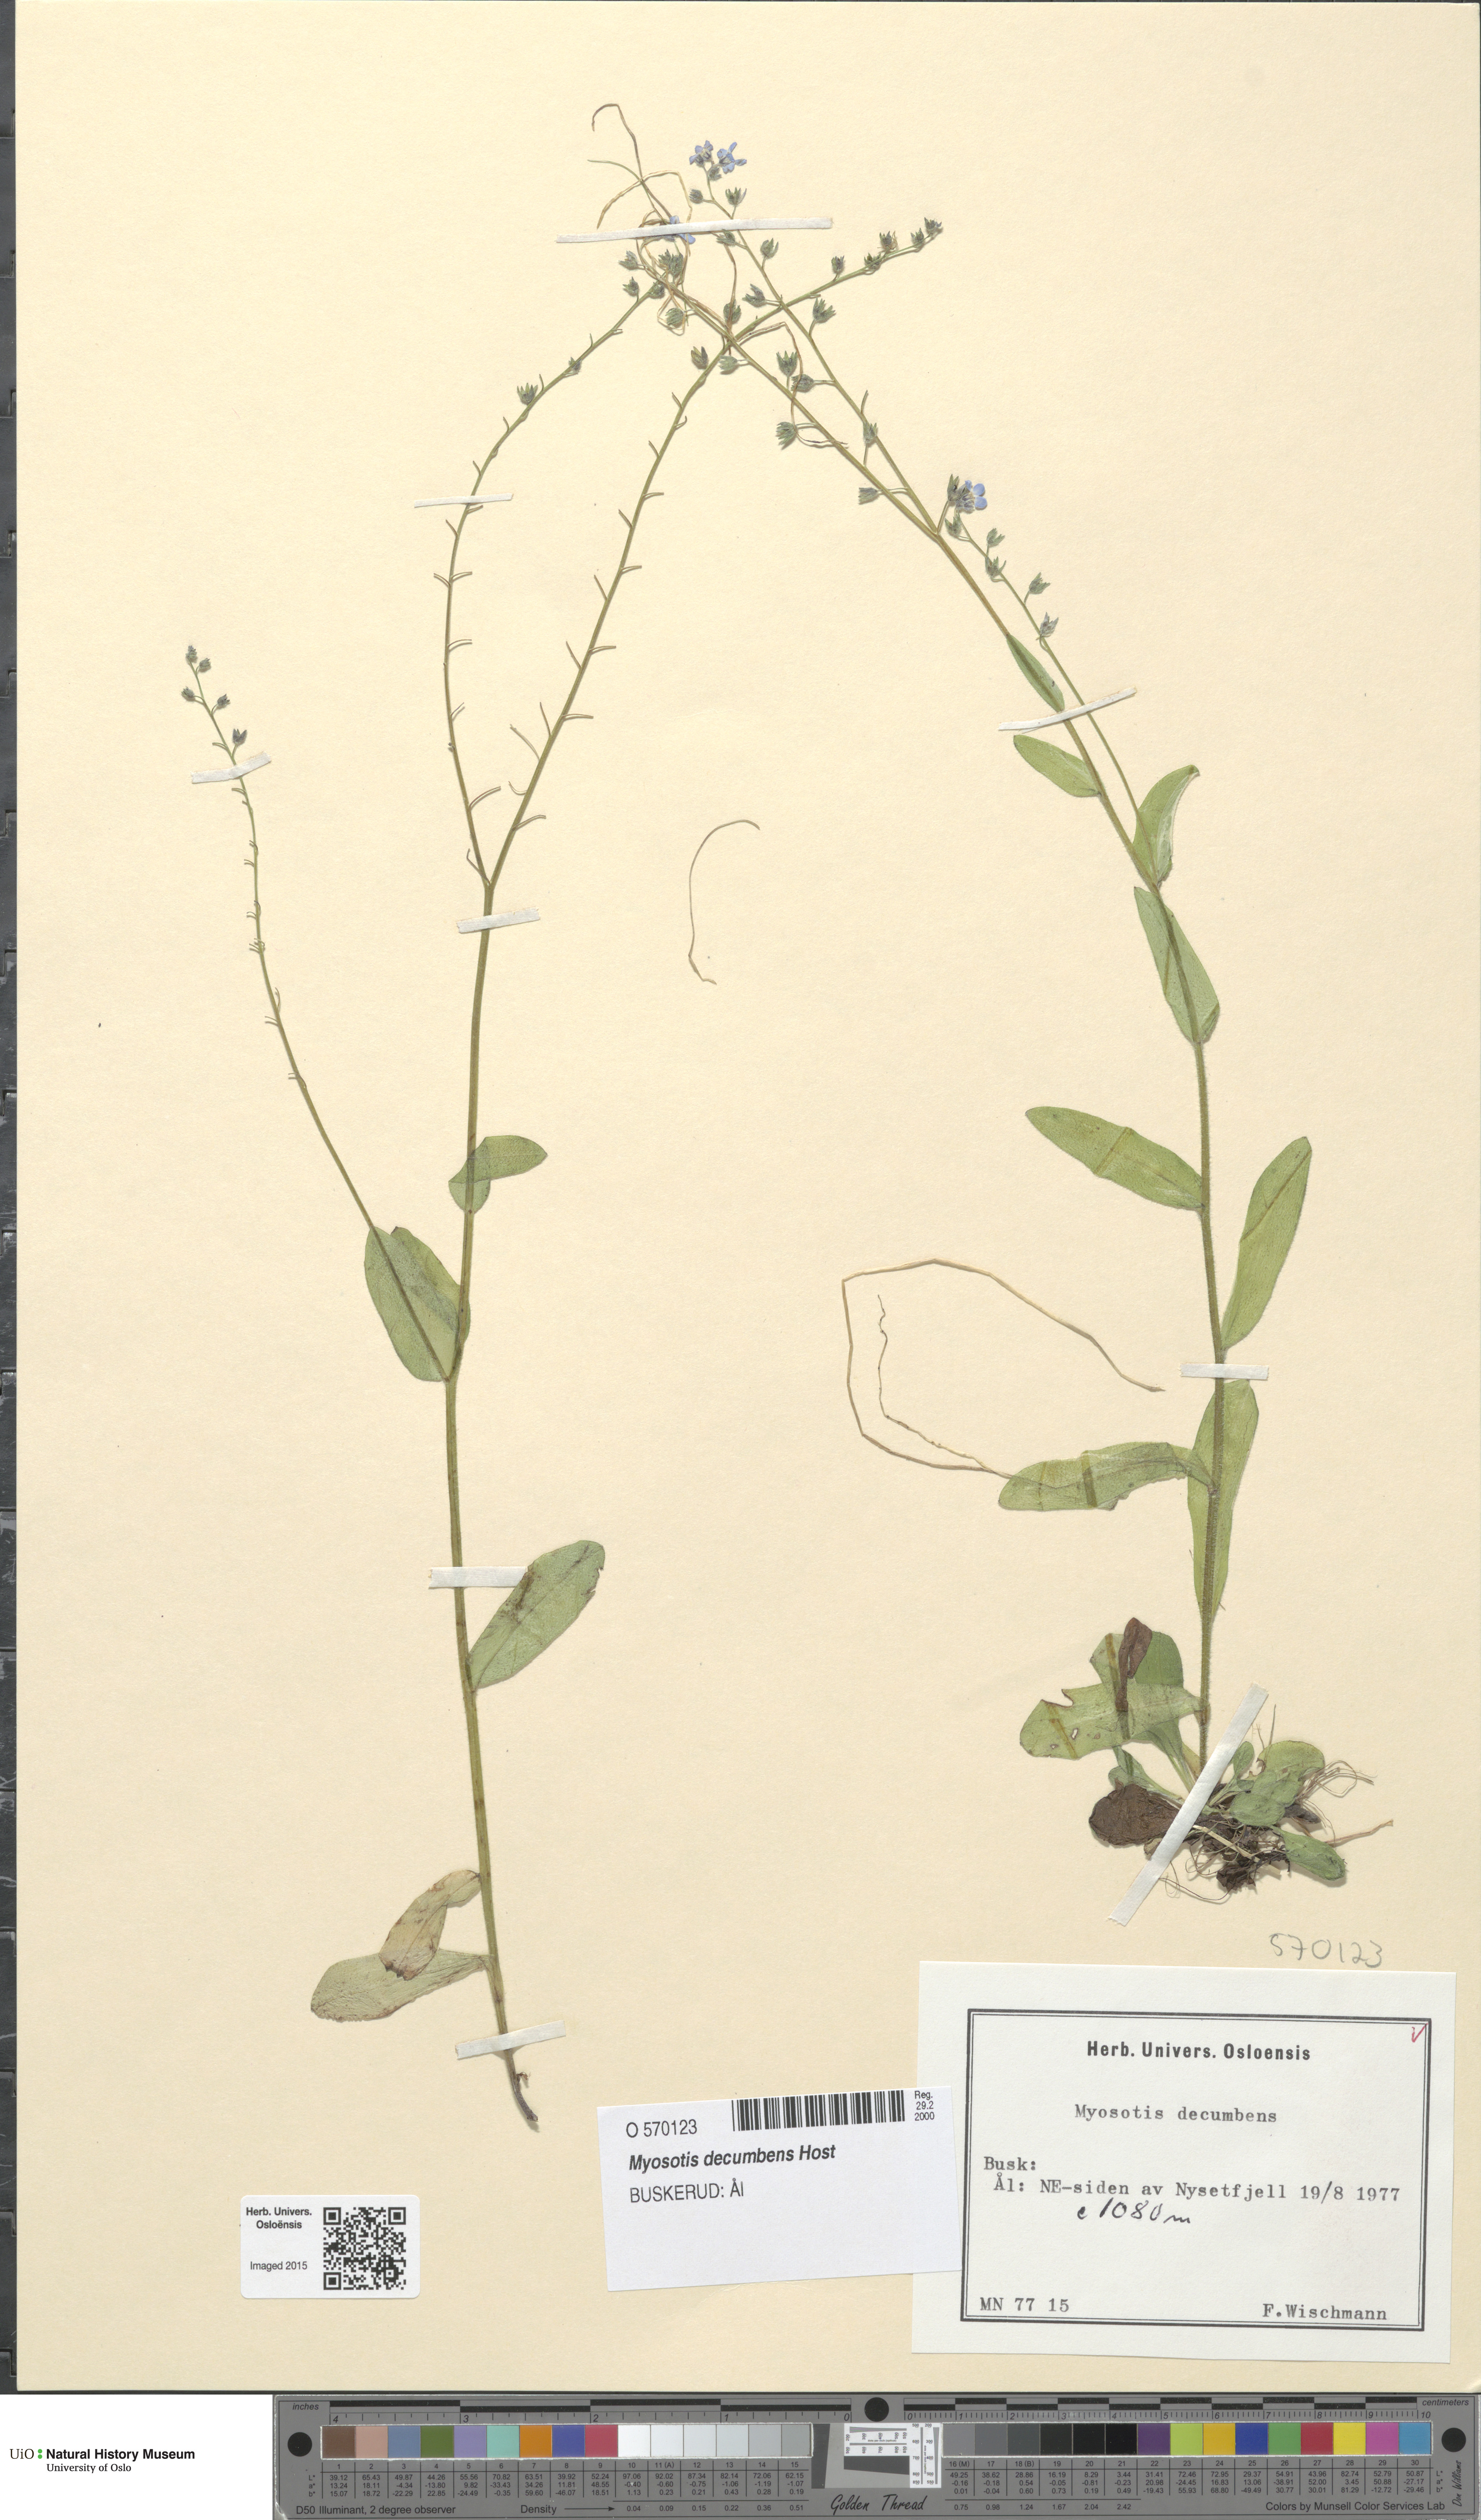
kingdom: Plantae
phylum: Tracheophyta
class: Magnoliopsida
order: Boraginales
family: Boraginaceae
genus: Myosotis
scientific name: Myosotis decumbens
